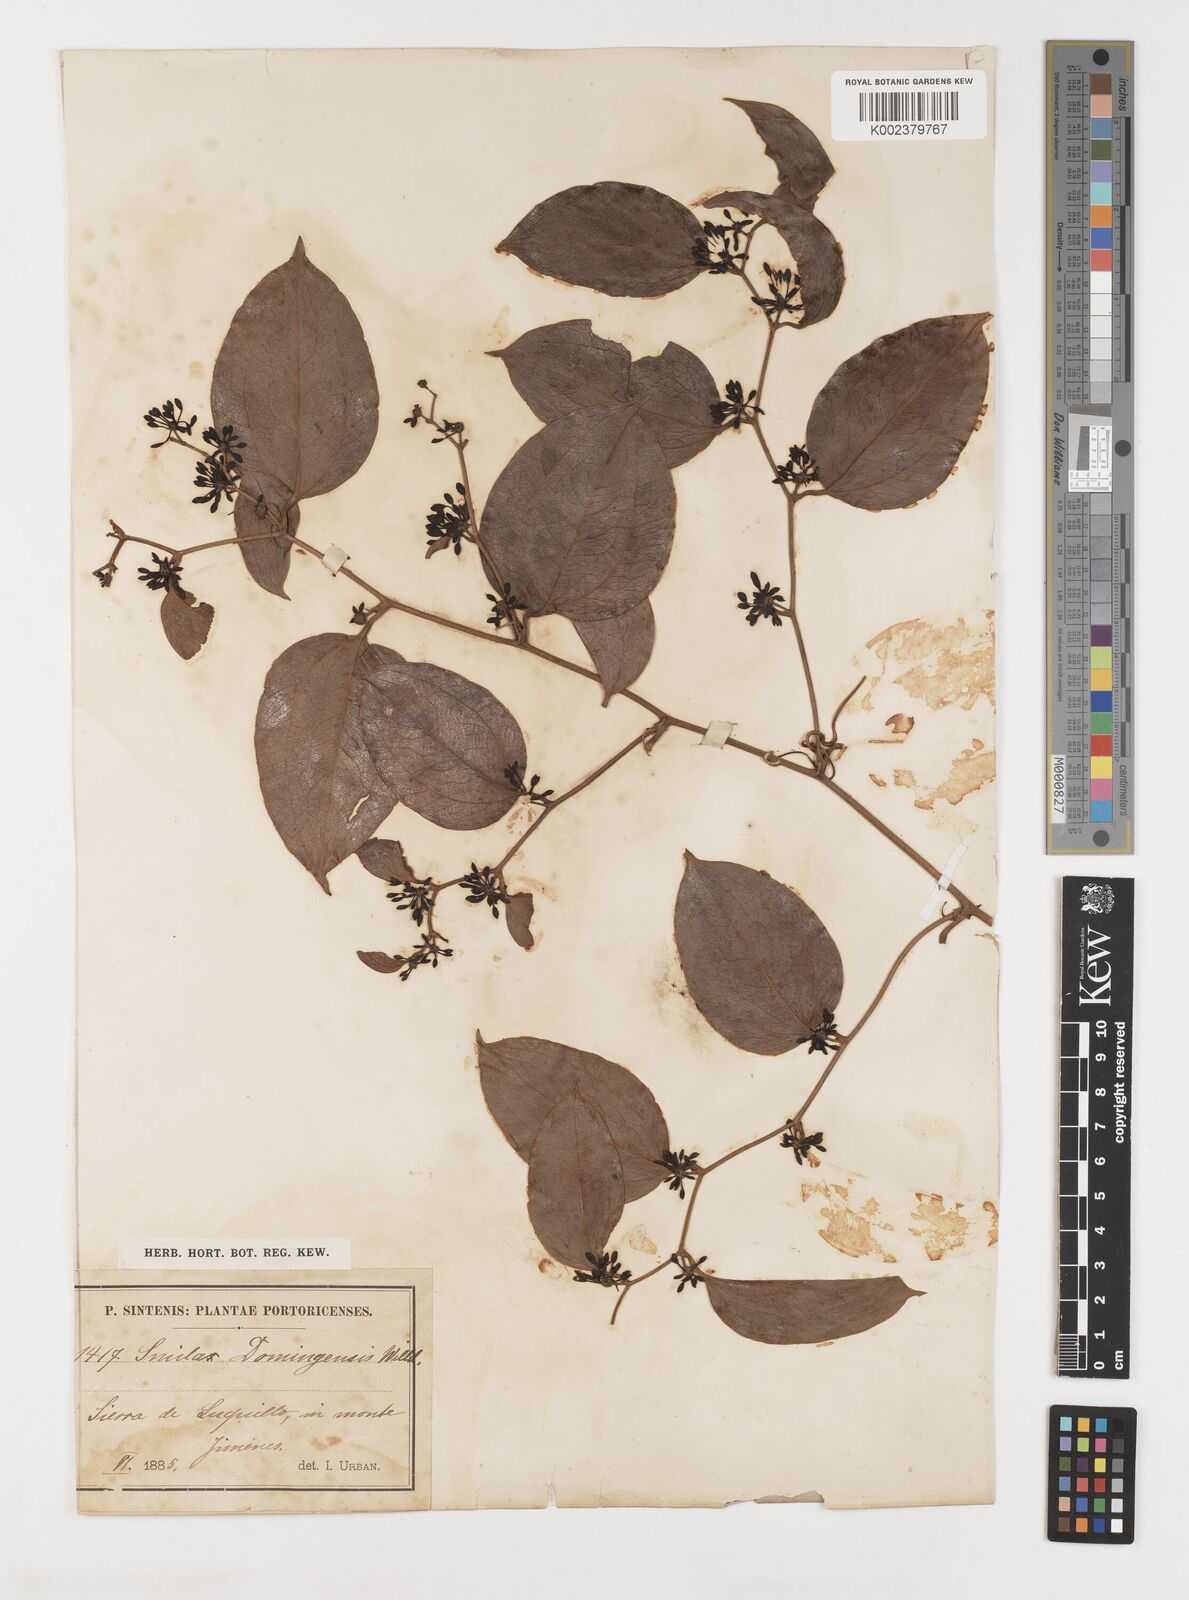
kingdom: Plantae
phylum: Tracheophyta
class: Liliopsida
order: Liliales
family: Smilacaceae
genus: Smilax
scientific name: Smilax domingensis
